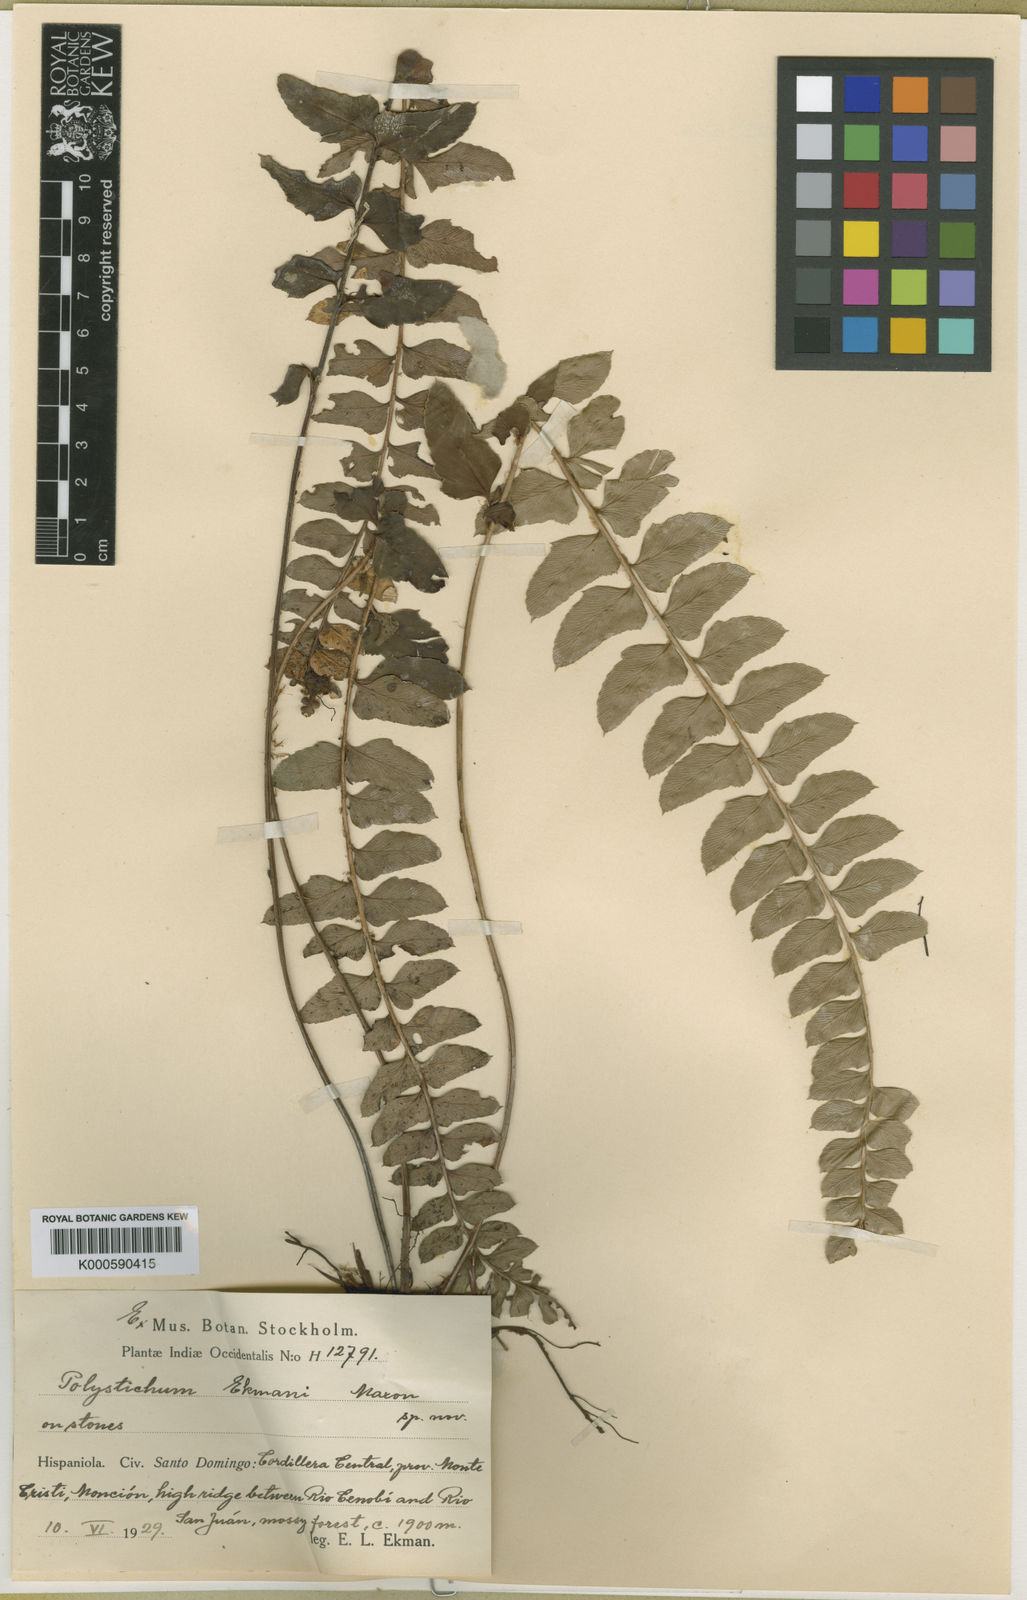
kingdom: Plantae
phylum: Tracheophyta
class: Polypodiopsida
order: Polypodiales
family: Dryopteridaceae
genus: Polystichum
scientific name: Polystichum stimulans
